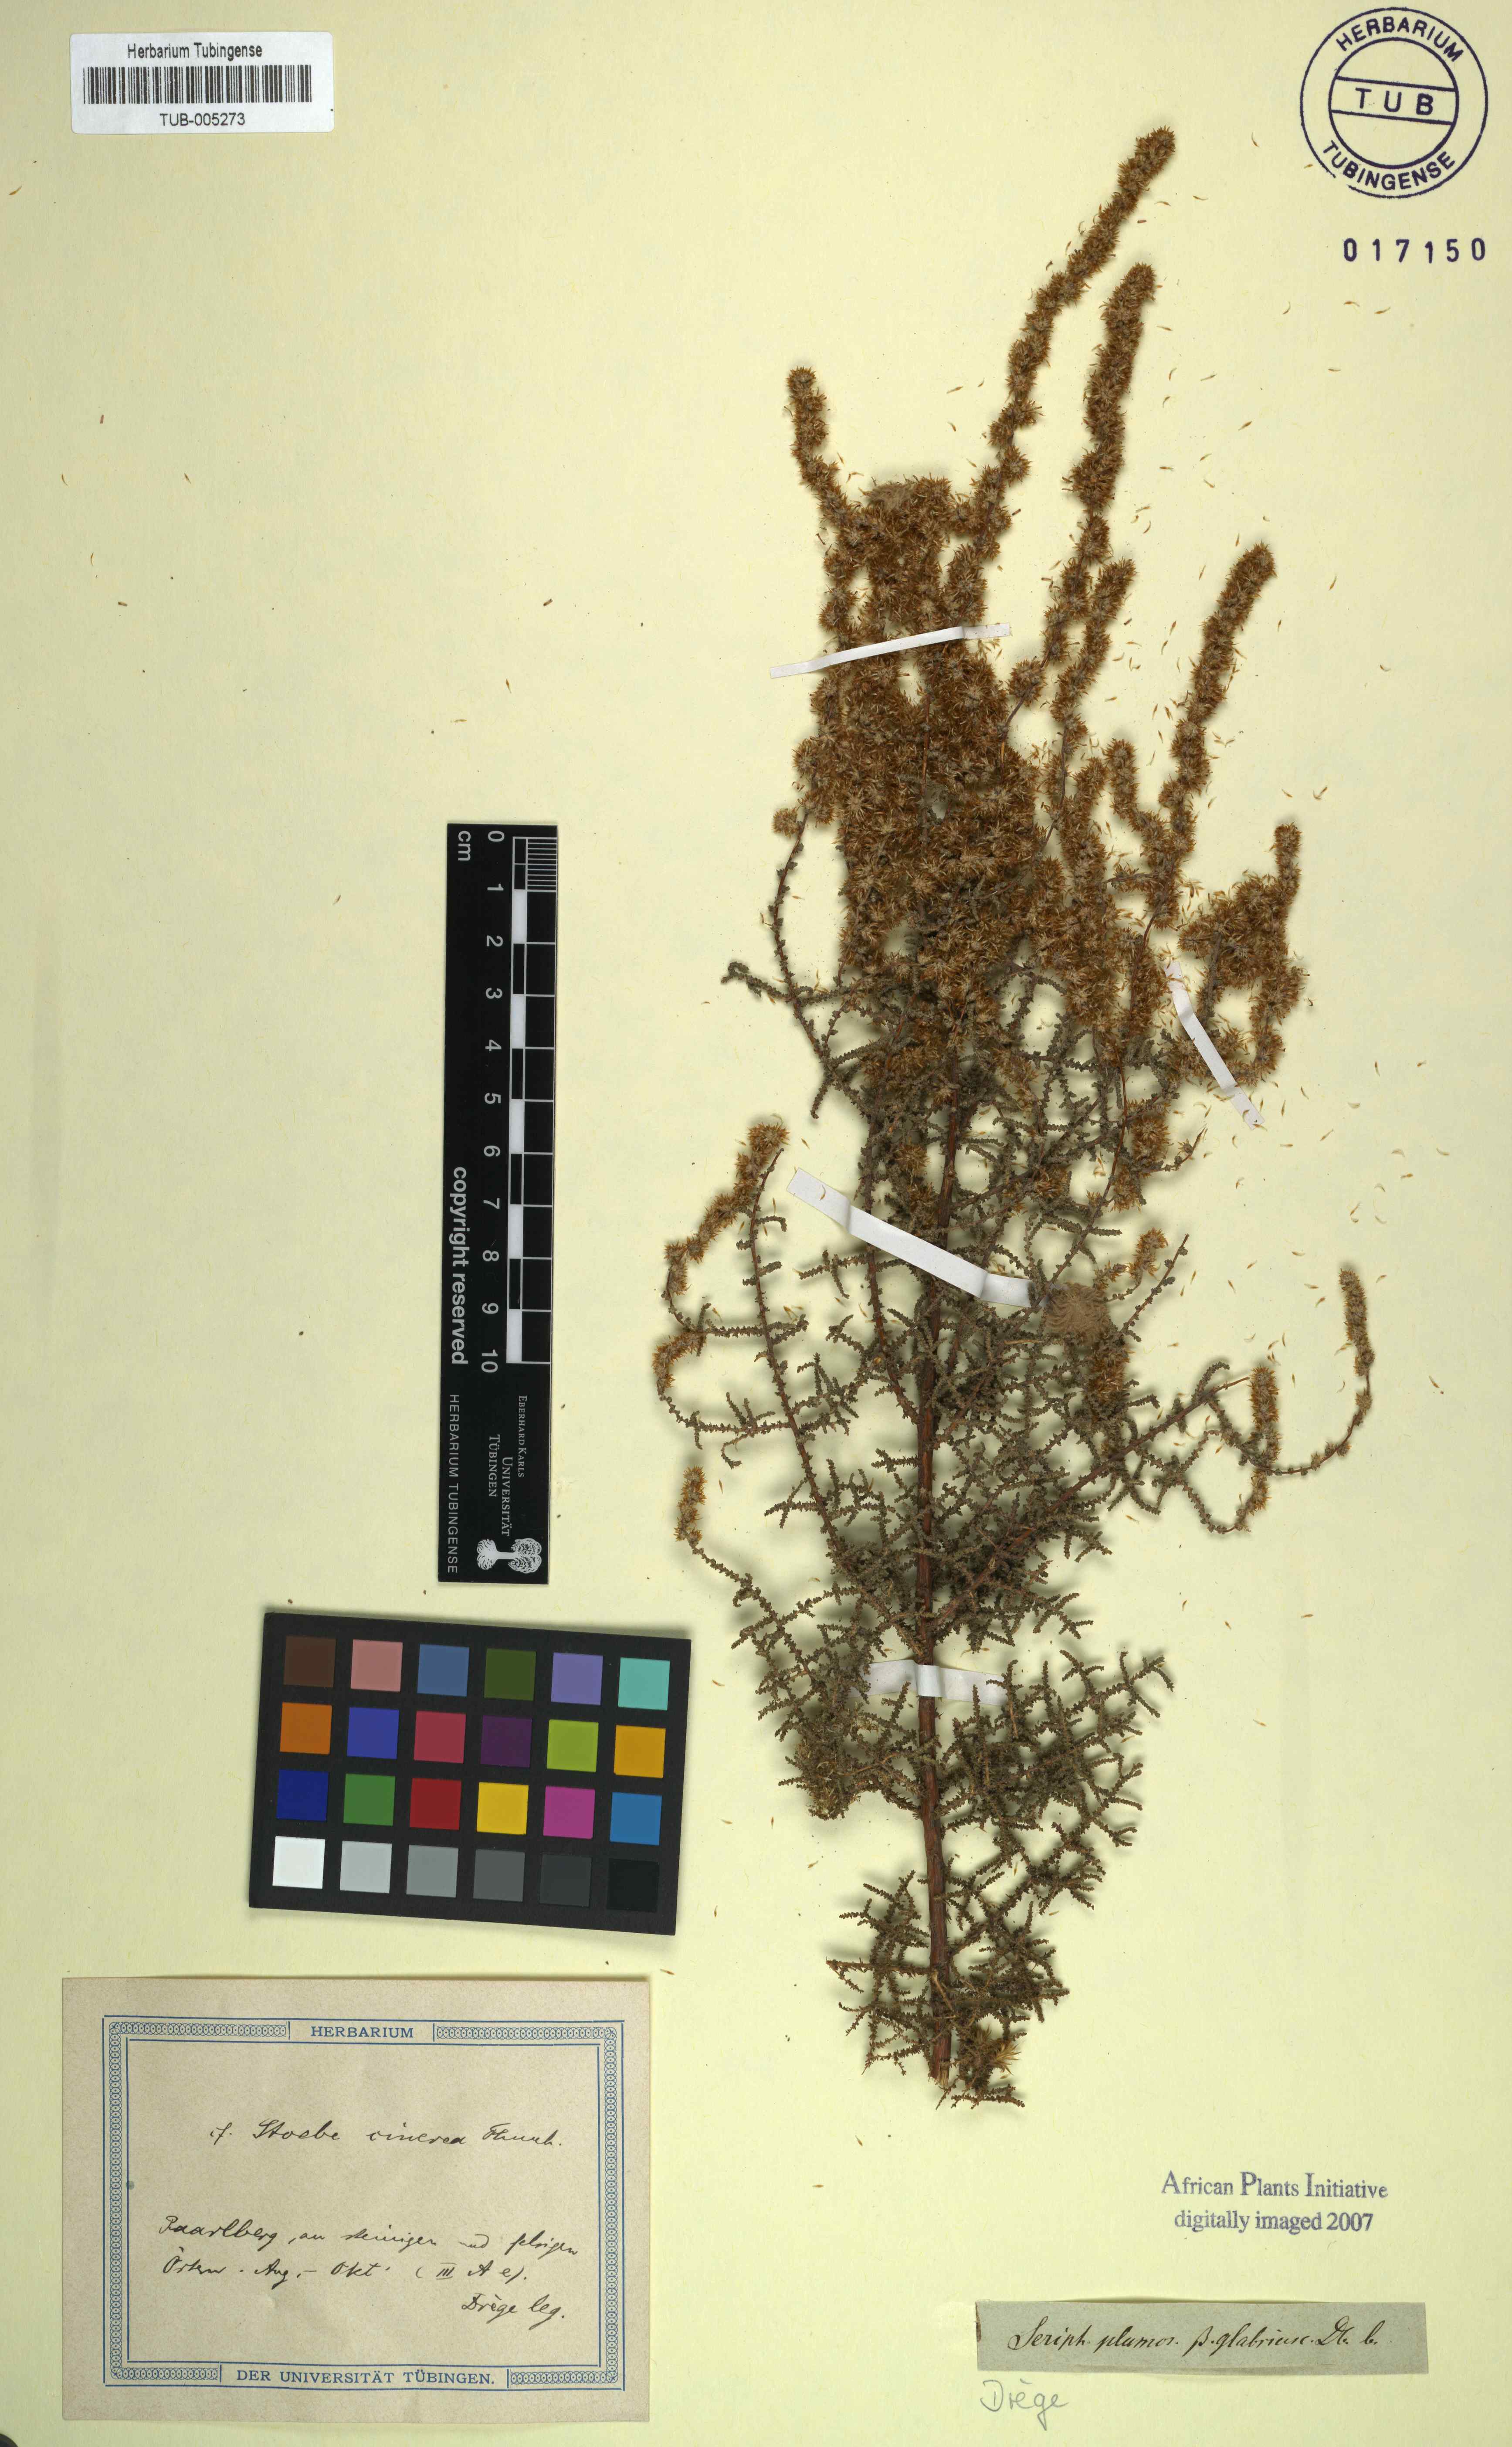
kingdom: Plantae
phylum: Tracheophyta
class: Magnoliopsida
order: Asterales
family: Asteraceae
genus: Seriphium
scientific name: Seriphium cinereum
